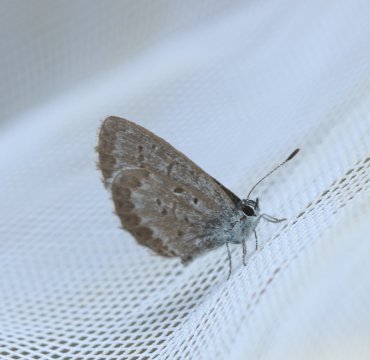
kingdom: Animalia
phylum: Arthropoda
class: Insecta
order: Lepidoptera
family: Lycaenidae
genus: Celastrina
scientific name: Celastrina lucia
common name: Northern Spring Azure
